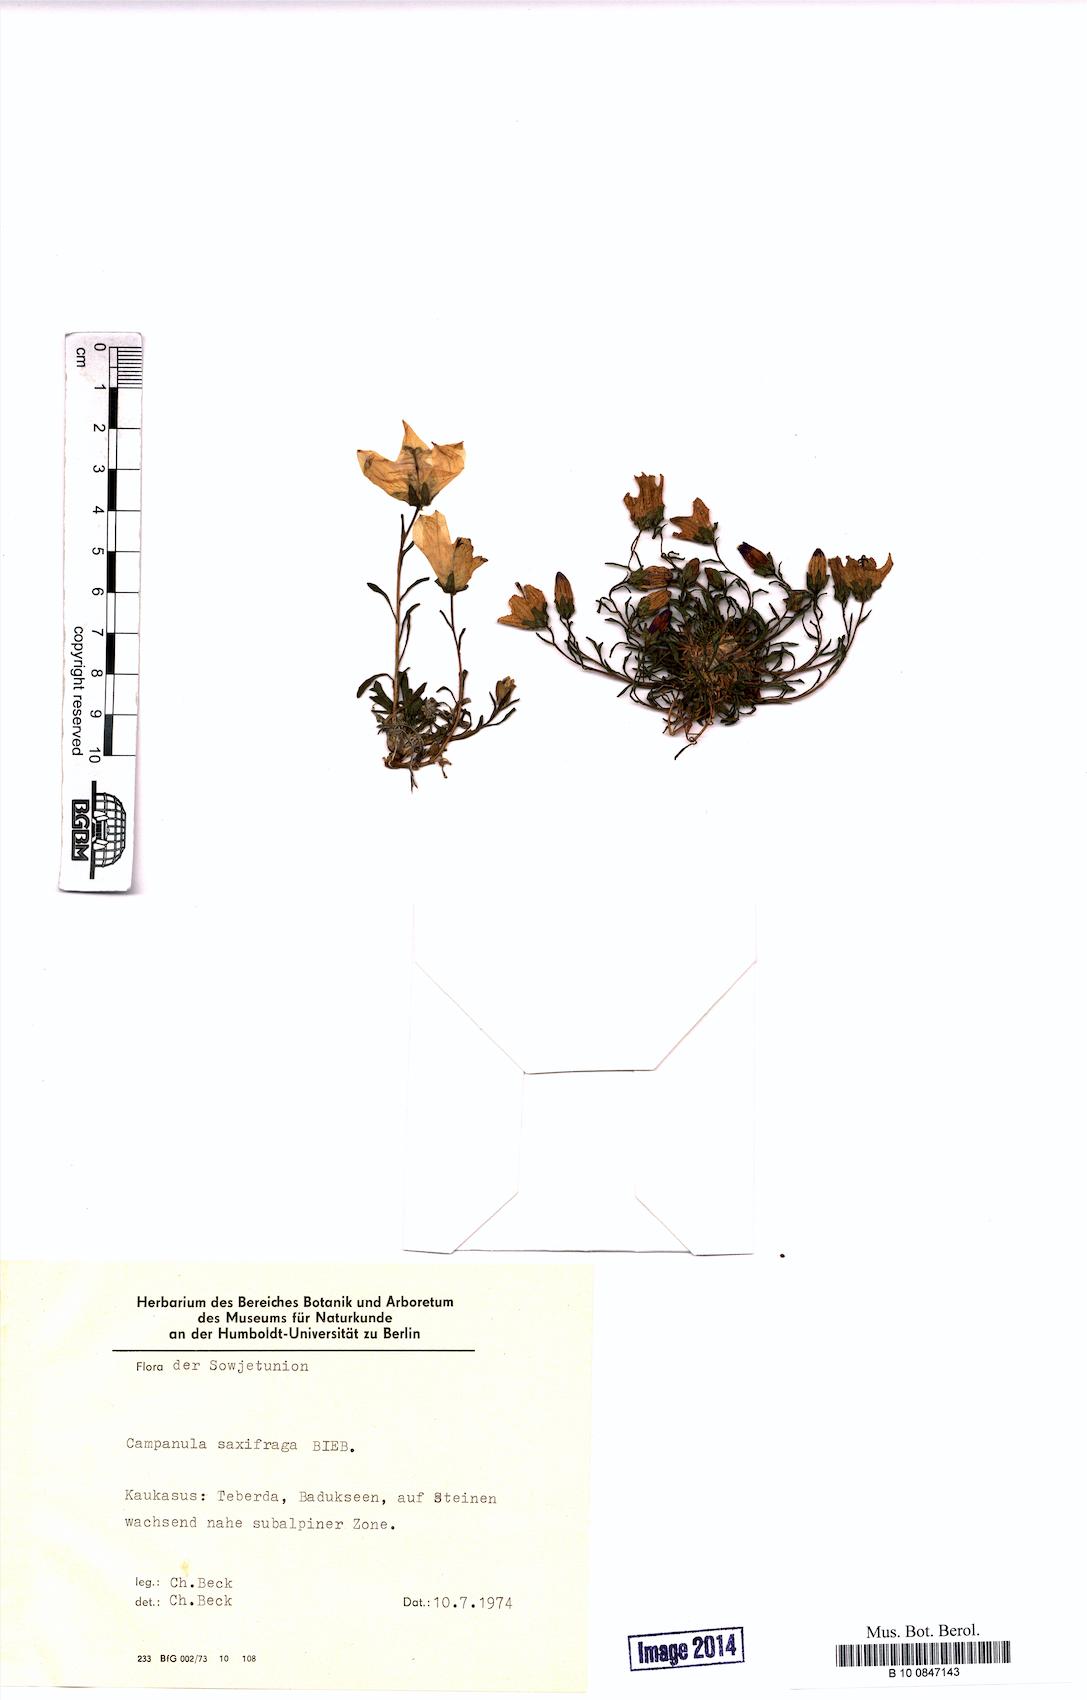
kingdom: Plantae
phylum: Tracheophyta
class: Magnoliopsida
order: Asterales
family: Campanulaceae
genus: Campanula
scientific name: Campanula saxifraga
